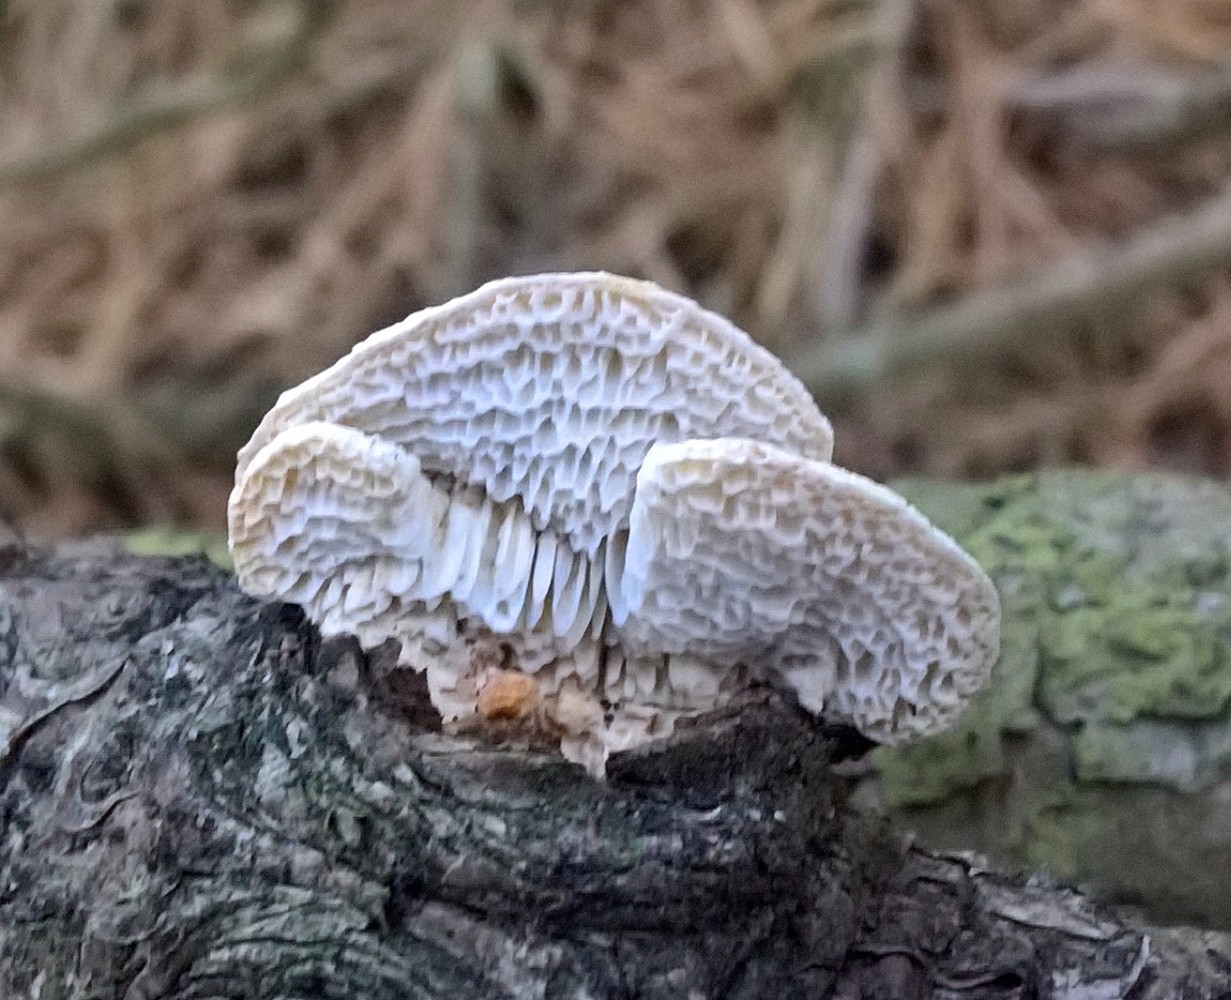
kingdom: Fungi
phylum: Basidiomycota
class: Agaricomycetes
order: Polyporales
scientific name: Polyporales
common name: poresvampordenen
